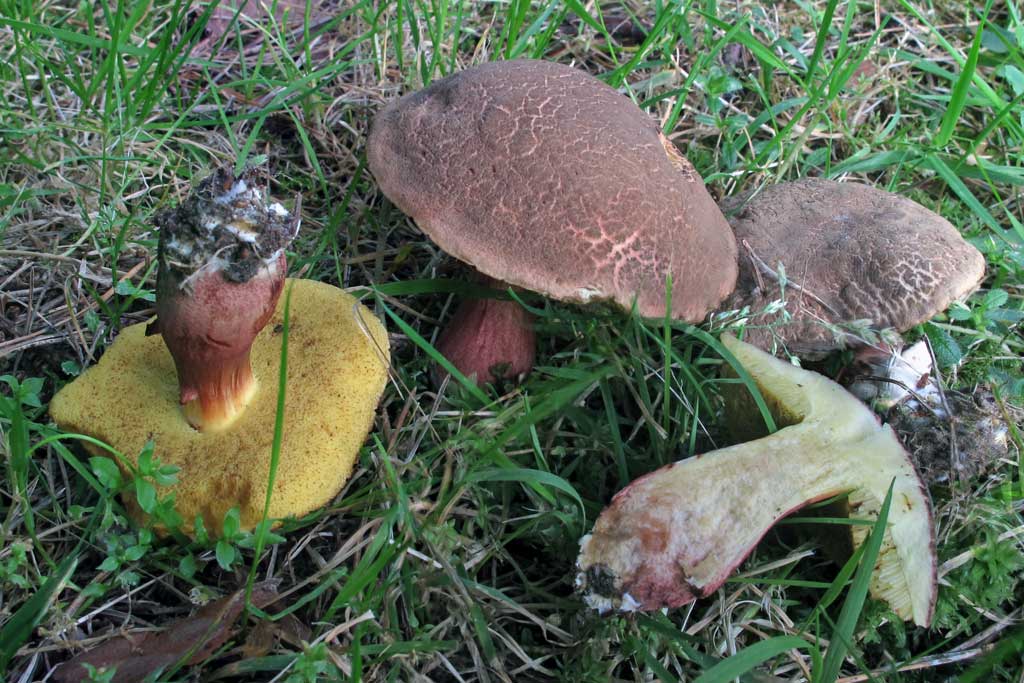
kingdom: Fungi
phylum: Basidiomycota
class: Agaricomycetes
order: Boletales
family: Boletaceae
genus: Xerocomellus
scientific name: Xerocomellus chrysenteron
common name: rødsprukken rørhat
